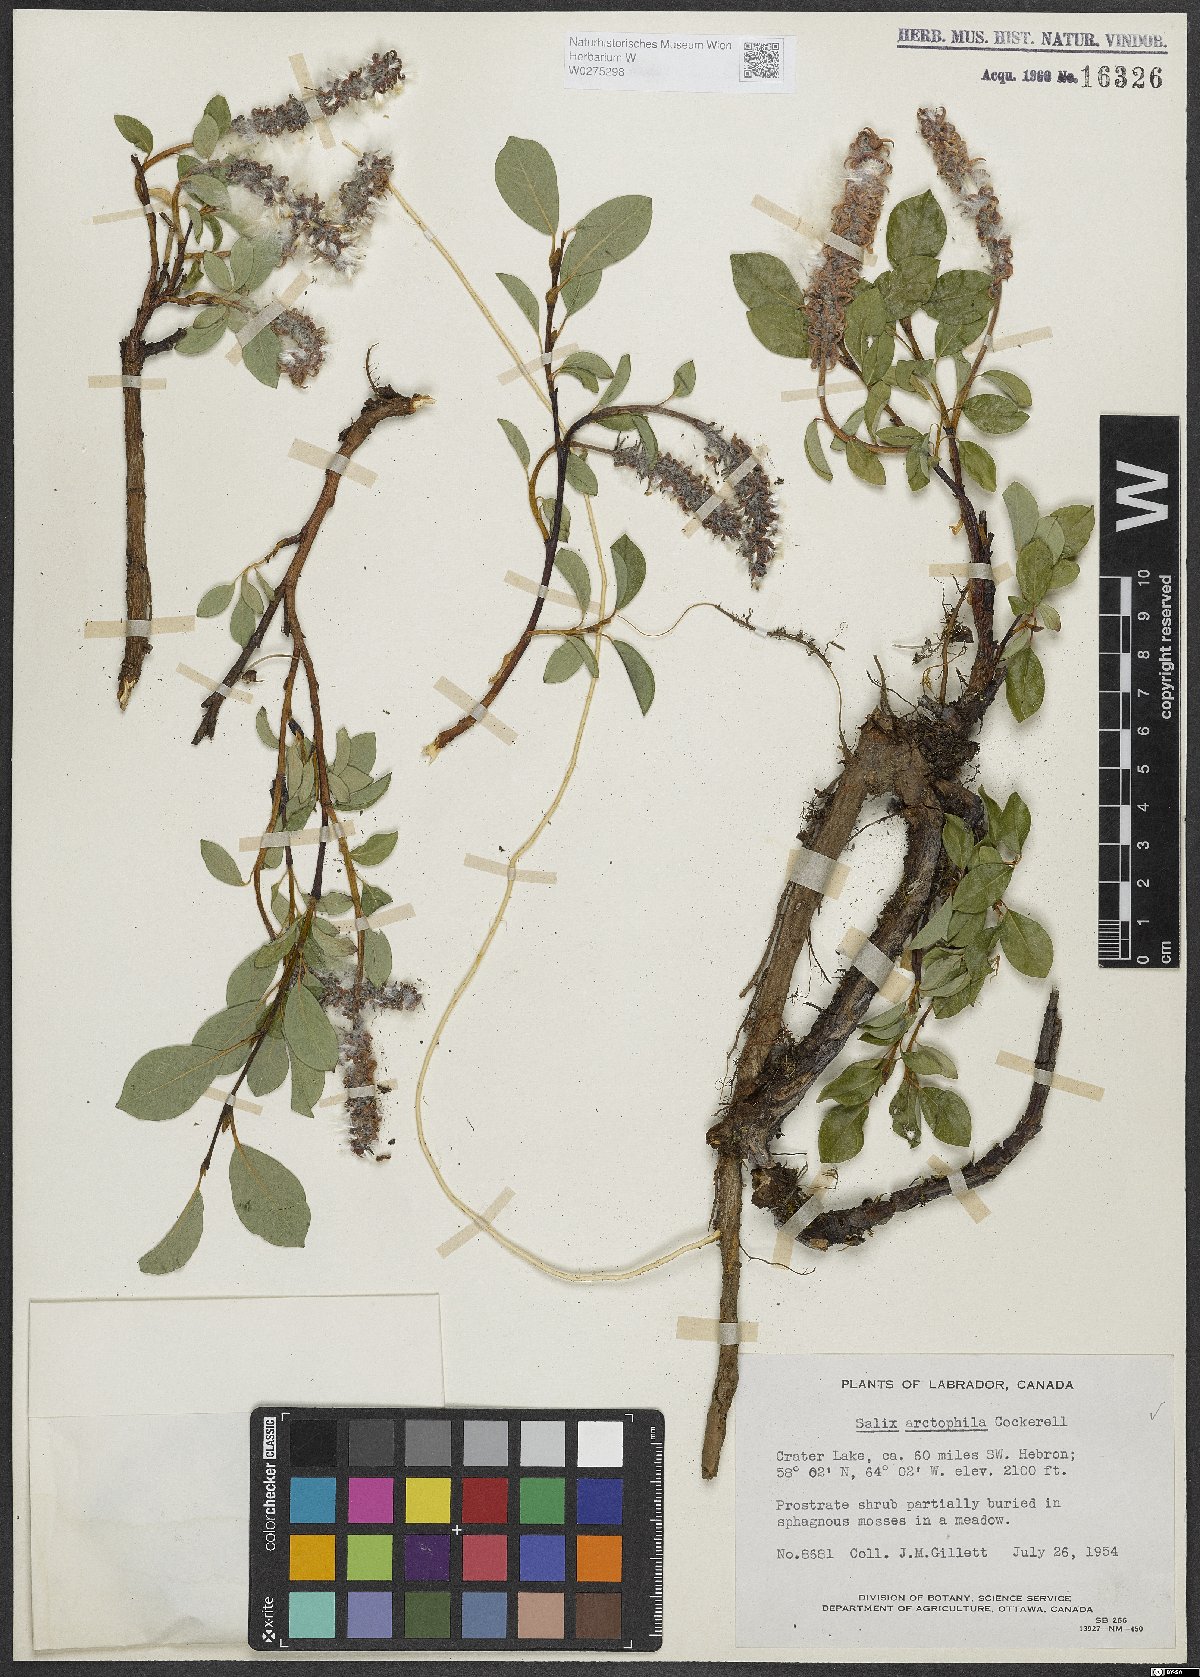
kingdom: Plantae
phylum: Tracheophyta
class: Magnoliopsida
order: Malpighiales
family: Salicaceae
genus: Salix
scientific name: Salix arctophila
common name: Greenland willow
